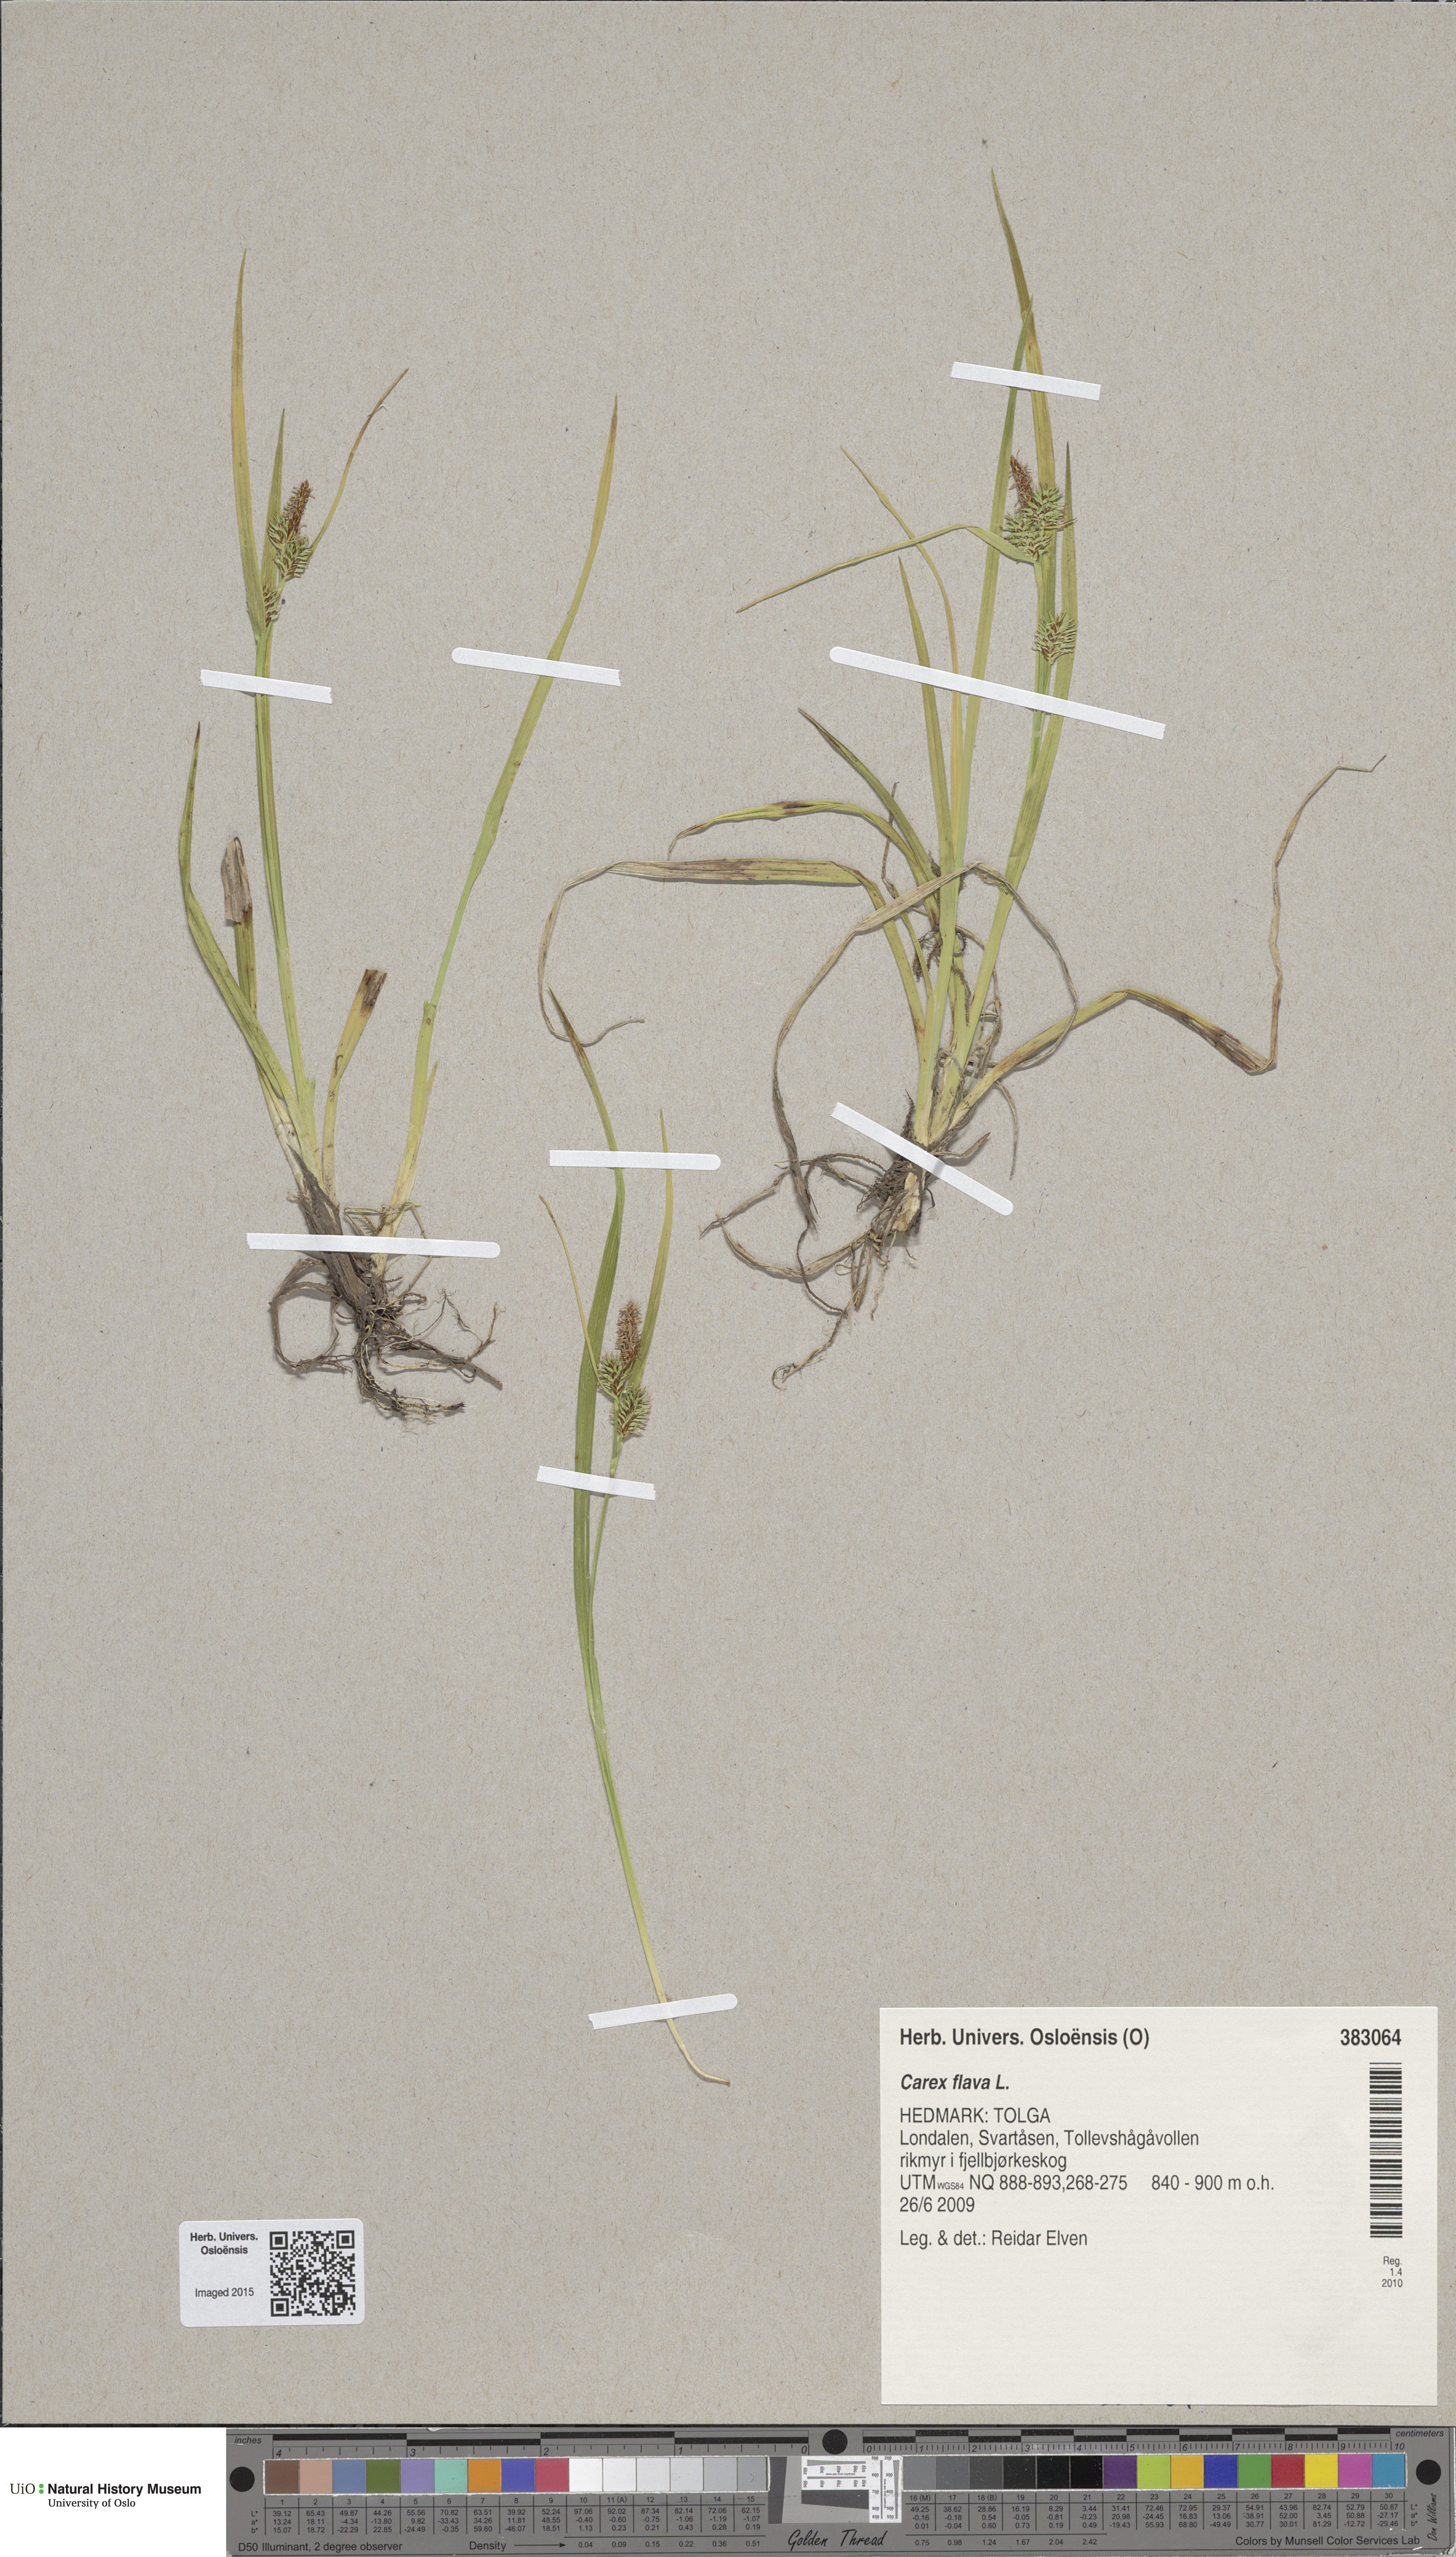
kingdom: Plantae
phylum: Tracheophyta
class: Liliopsida
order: Poales
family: Cyperaceae
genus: Carex
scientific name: Carex flava
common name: Large yellow-sedge
